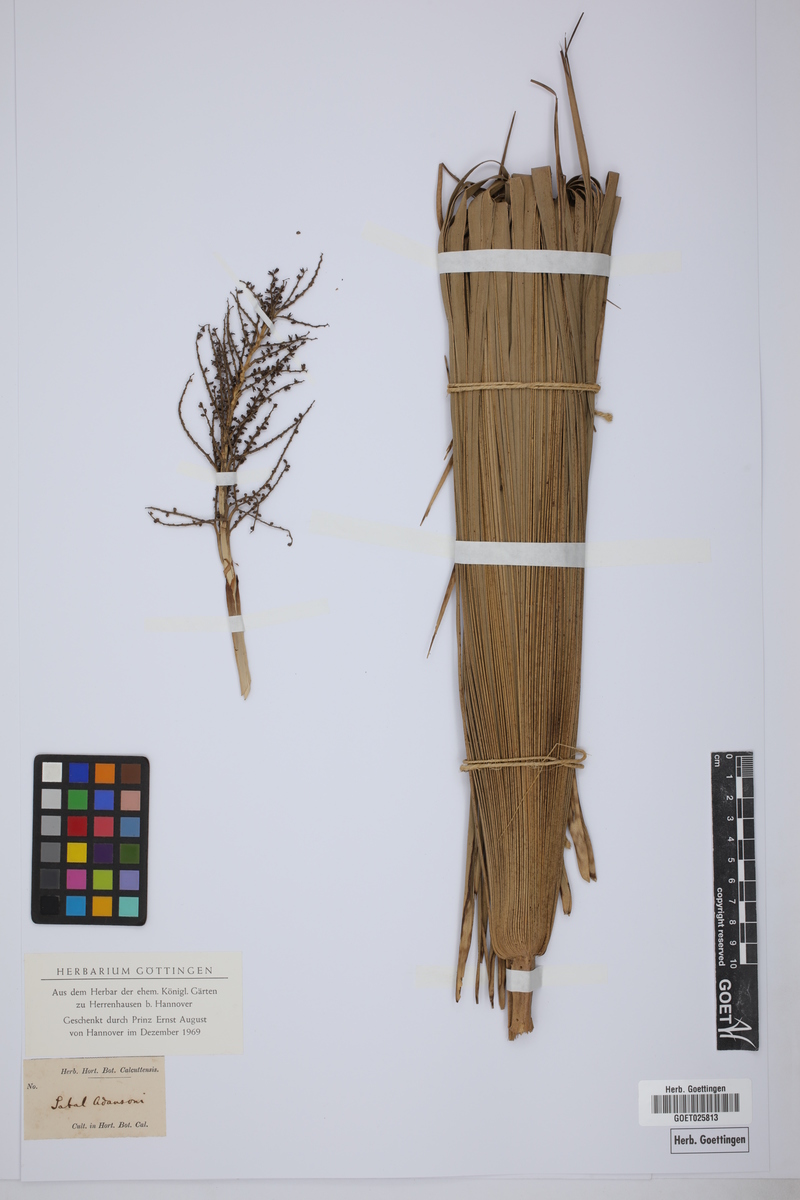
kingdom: Plantae
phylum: Tracheophyta
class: Liliopsida
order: Arecales
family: Arecaceae
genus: Sabal
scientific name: Sabal minor
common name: Dwarf palmetto
